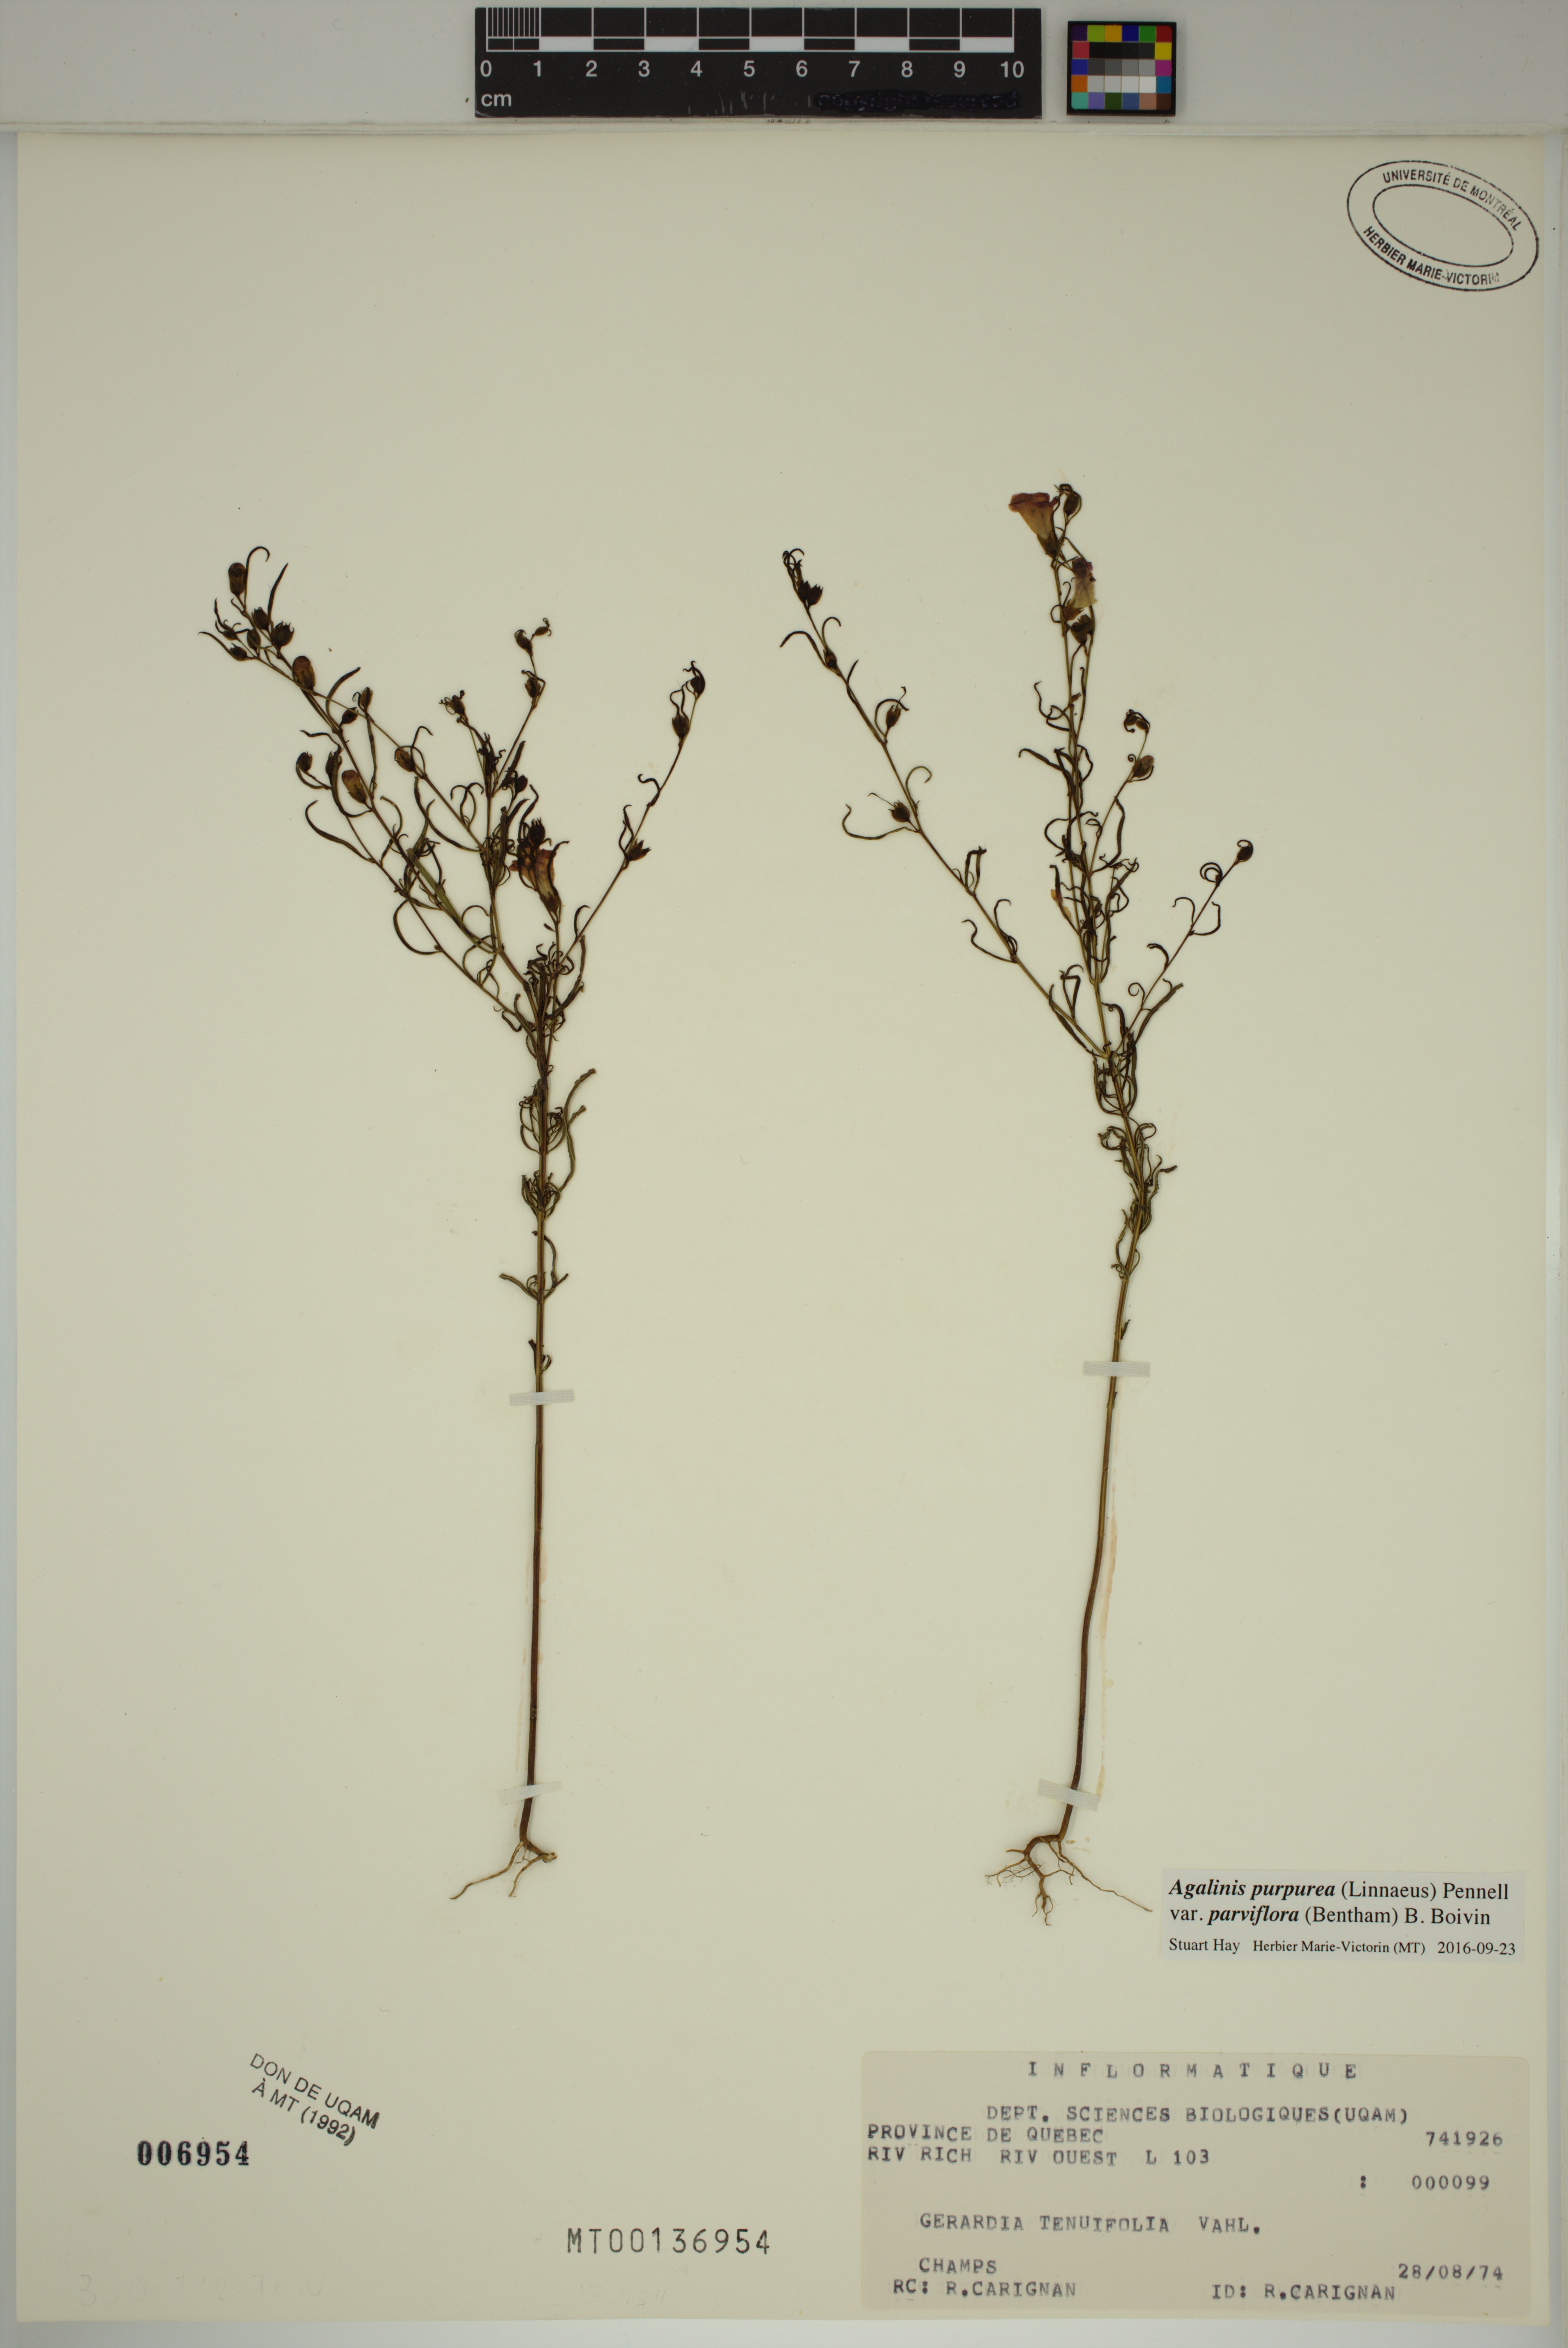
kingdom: Plantae
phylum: Tracheophyta
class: Magnoliopsida
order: Lamiales
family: Orobanchaceae
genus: Agalinis
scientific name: Agalinis purpurea
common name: Purple false foxglove
